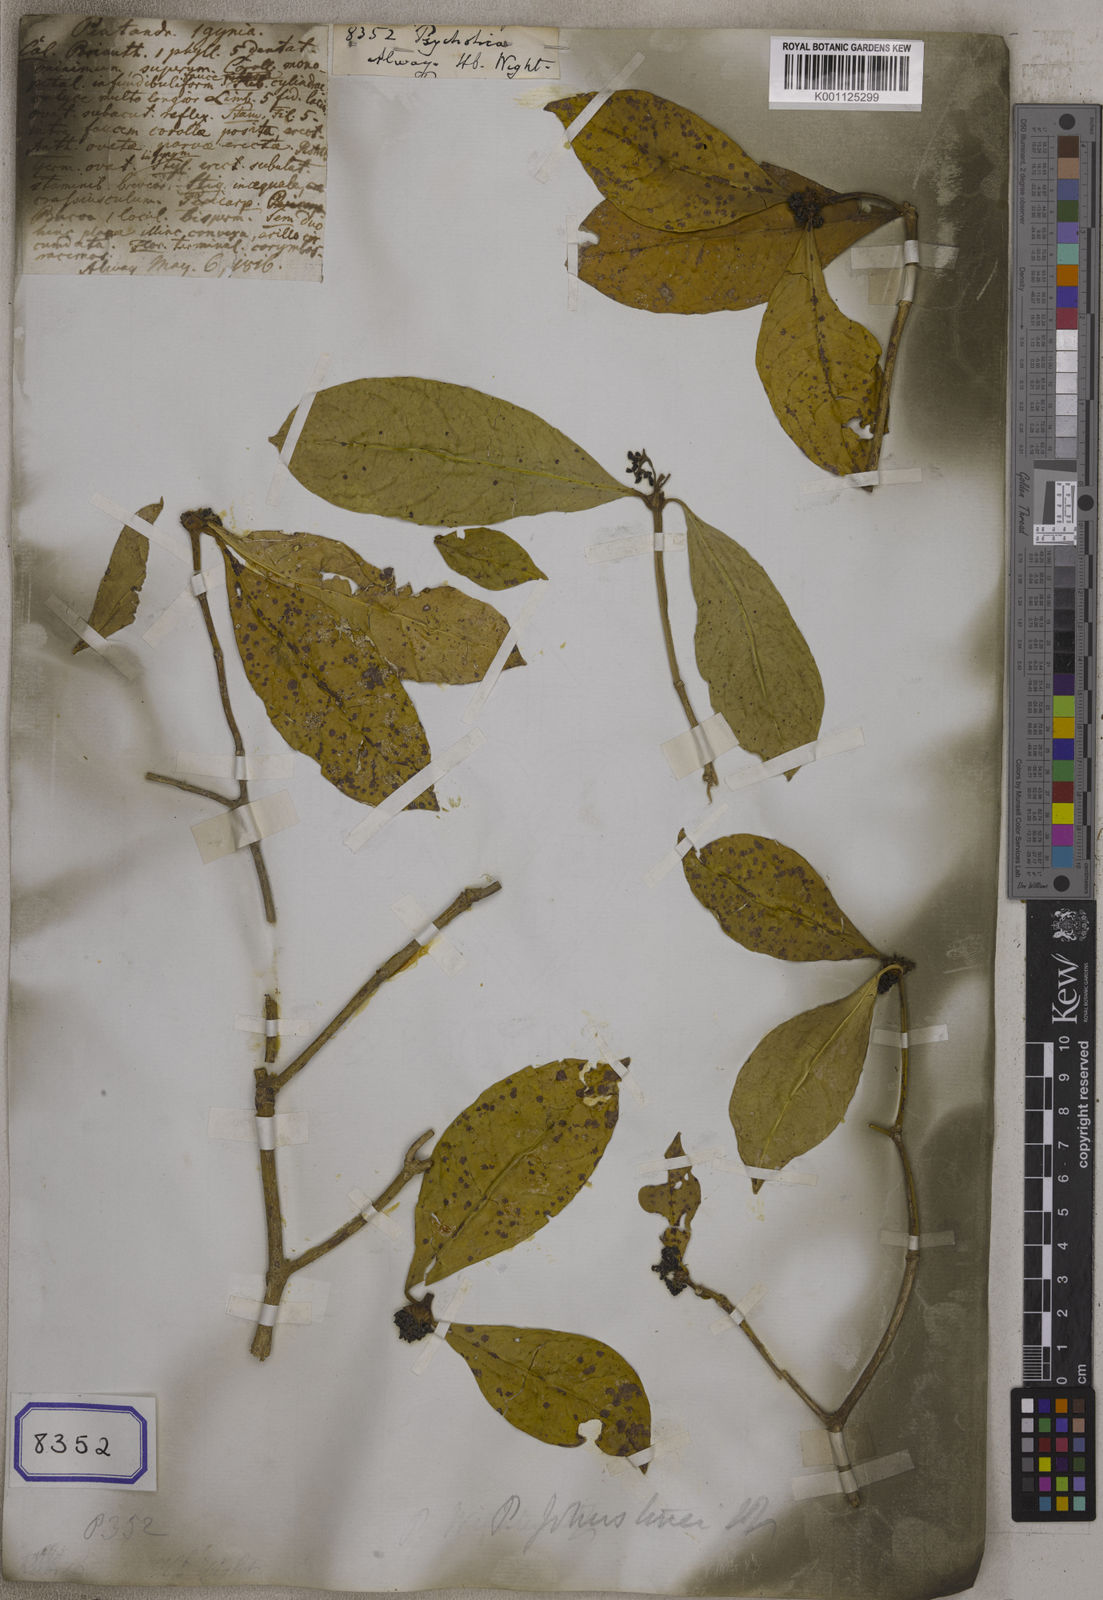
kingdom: Plantae
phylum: Tracheophyta
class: Magnoliopsida
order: Gentianales
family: Rubiaceae
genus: Psychotria
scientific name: Psychotria
